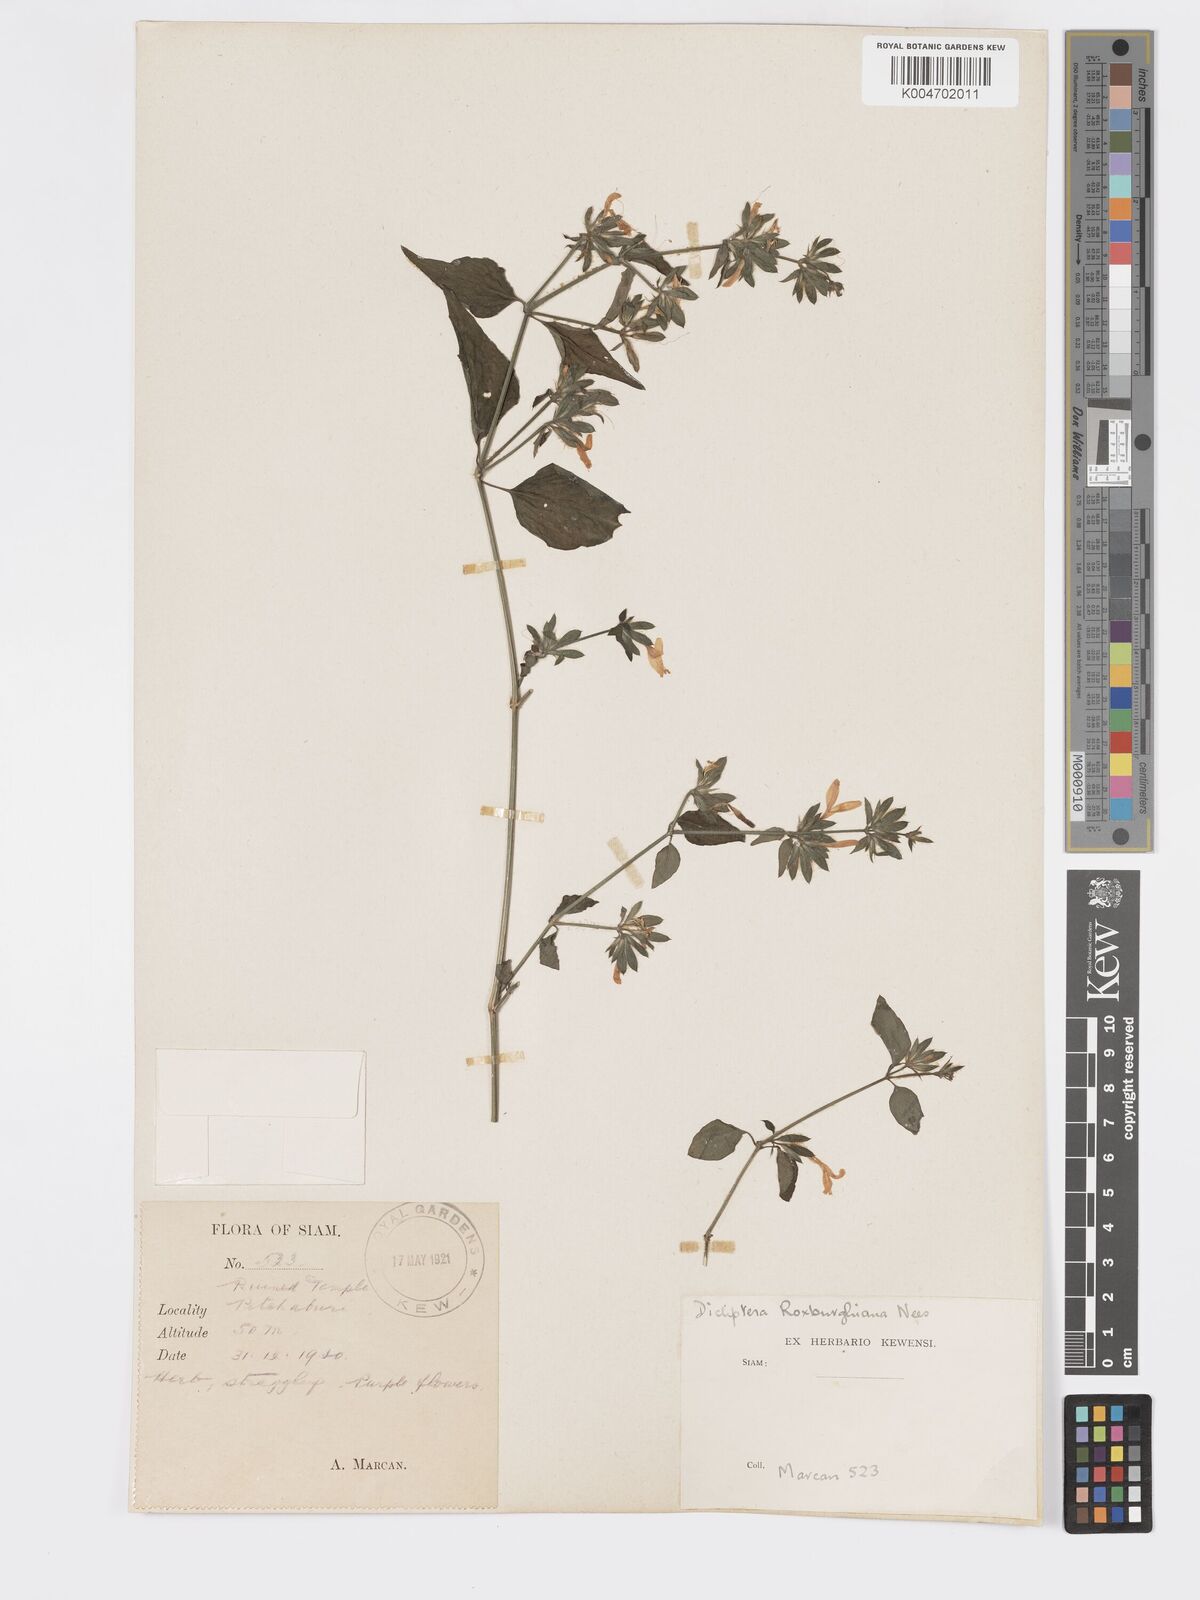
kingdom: Plantae
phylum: Tracheophyta
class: Magnoliopsida
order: Lamiales
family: Acanthaceae
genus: Dicliptera
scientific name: Dicliptera chinensis
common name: Chinese foldwing
